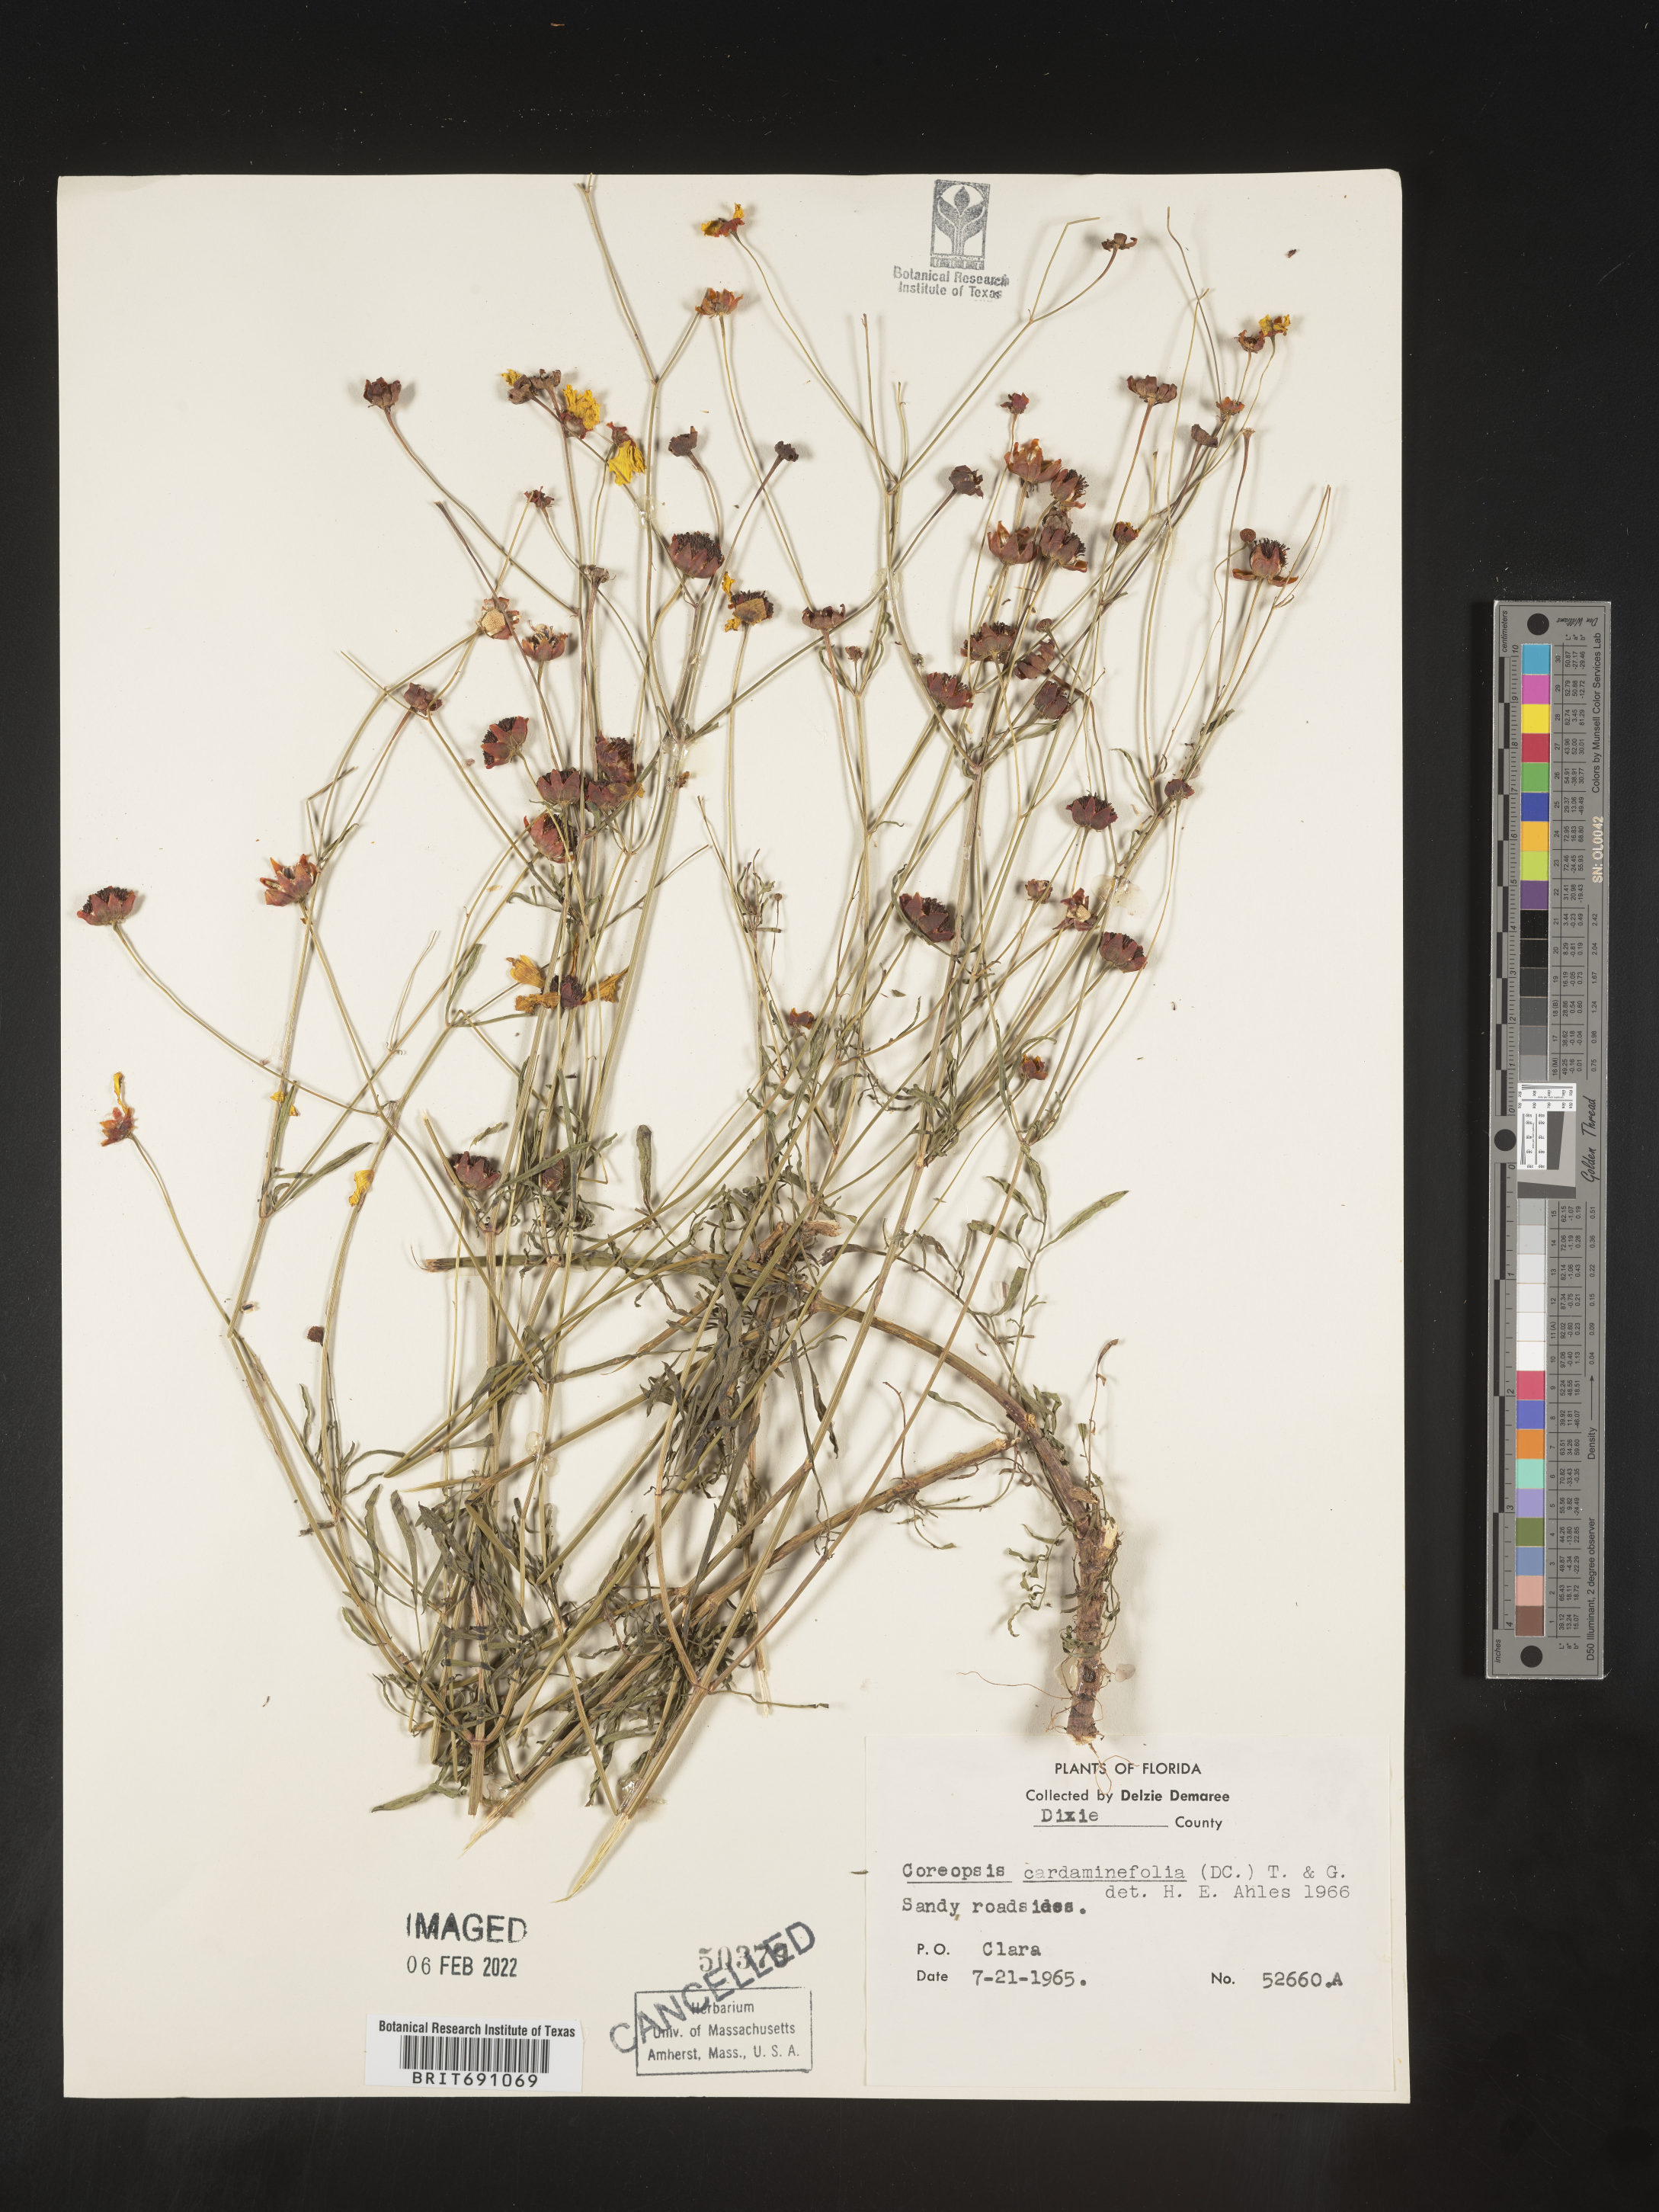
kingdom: Plantae
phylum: Tracheophyta
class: Magnoliopsida
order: Asterales
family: Asteraceae
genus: Coreopsis
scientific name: Coreopsis
